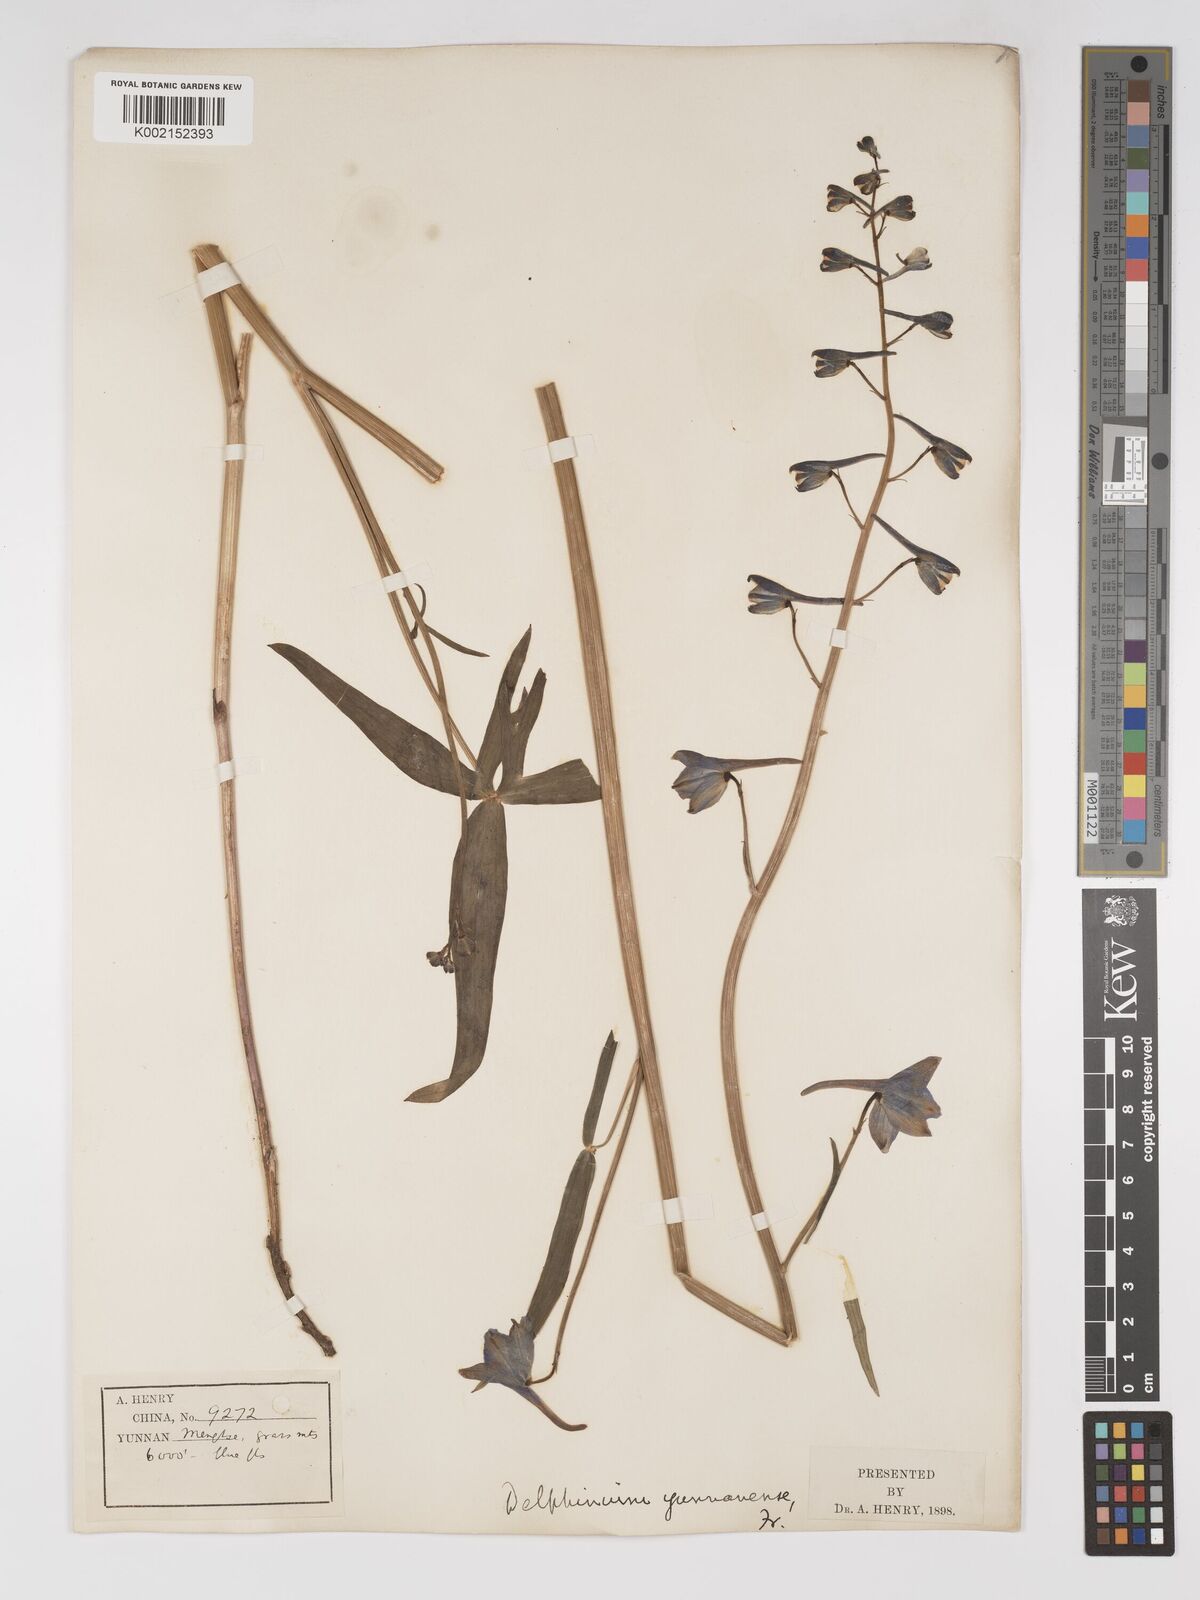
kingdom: Plantae
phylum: Tracheophyta
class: Magnoliopsida
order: Ranunculales
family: Ranunculaceae
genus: Delphinium
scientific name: Delphinium yunnanense
